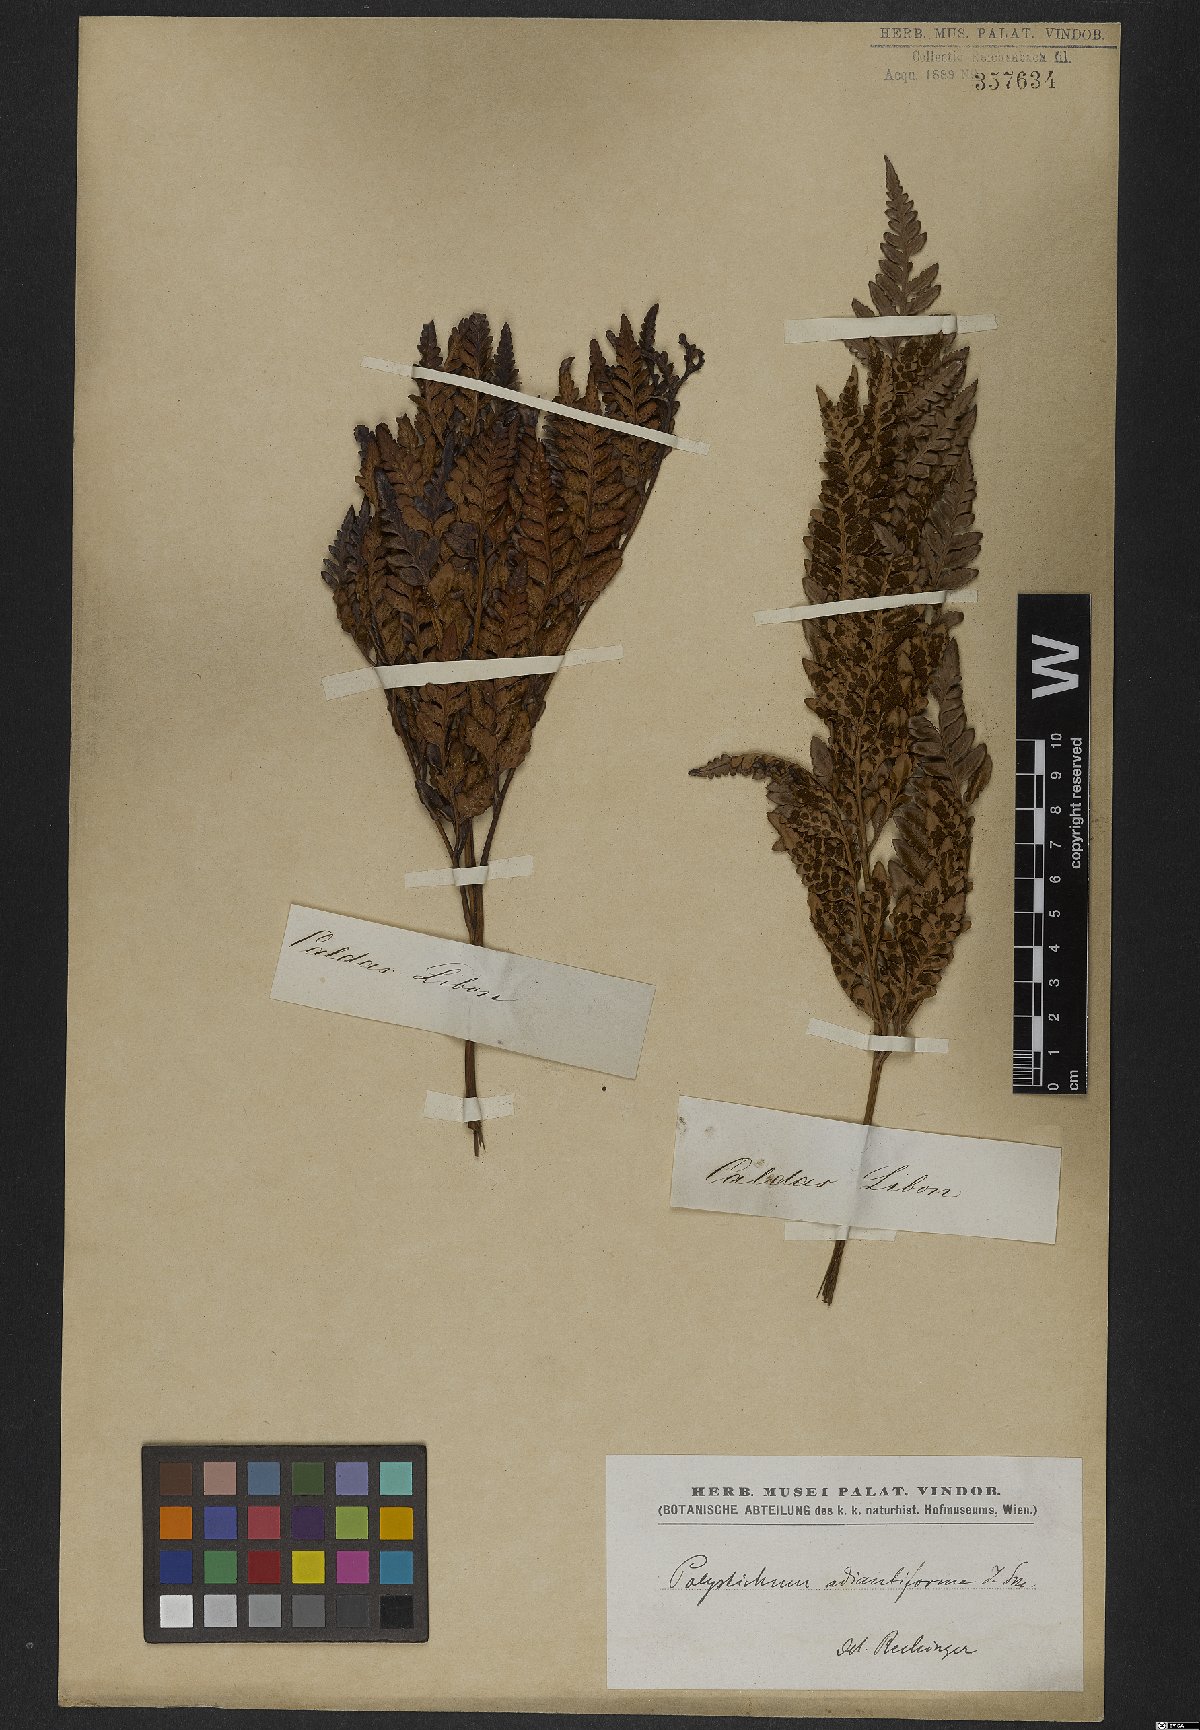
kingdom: Plantae
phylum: Tracheophyta
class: Polypodiopsida
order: Polypodiales
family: Dryopteridaceae
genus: Rumohra
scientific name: Rumohra adiantiformis
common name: Leather fern
